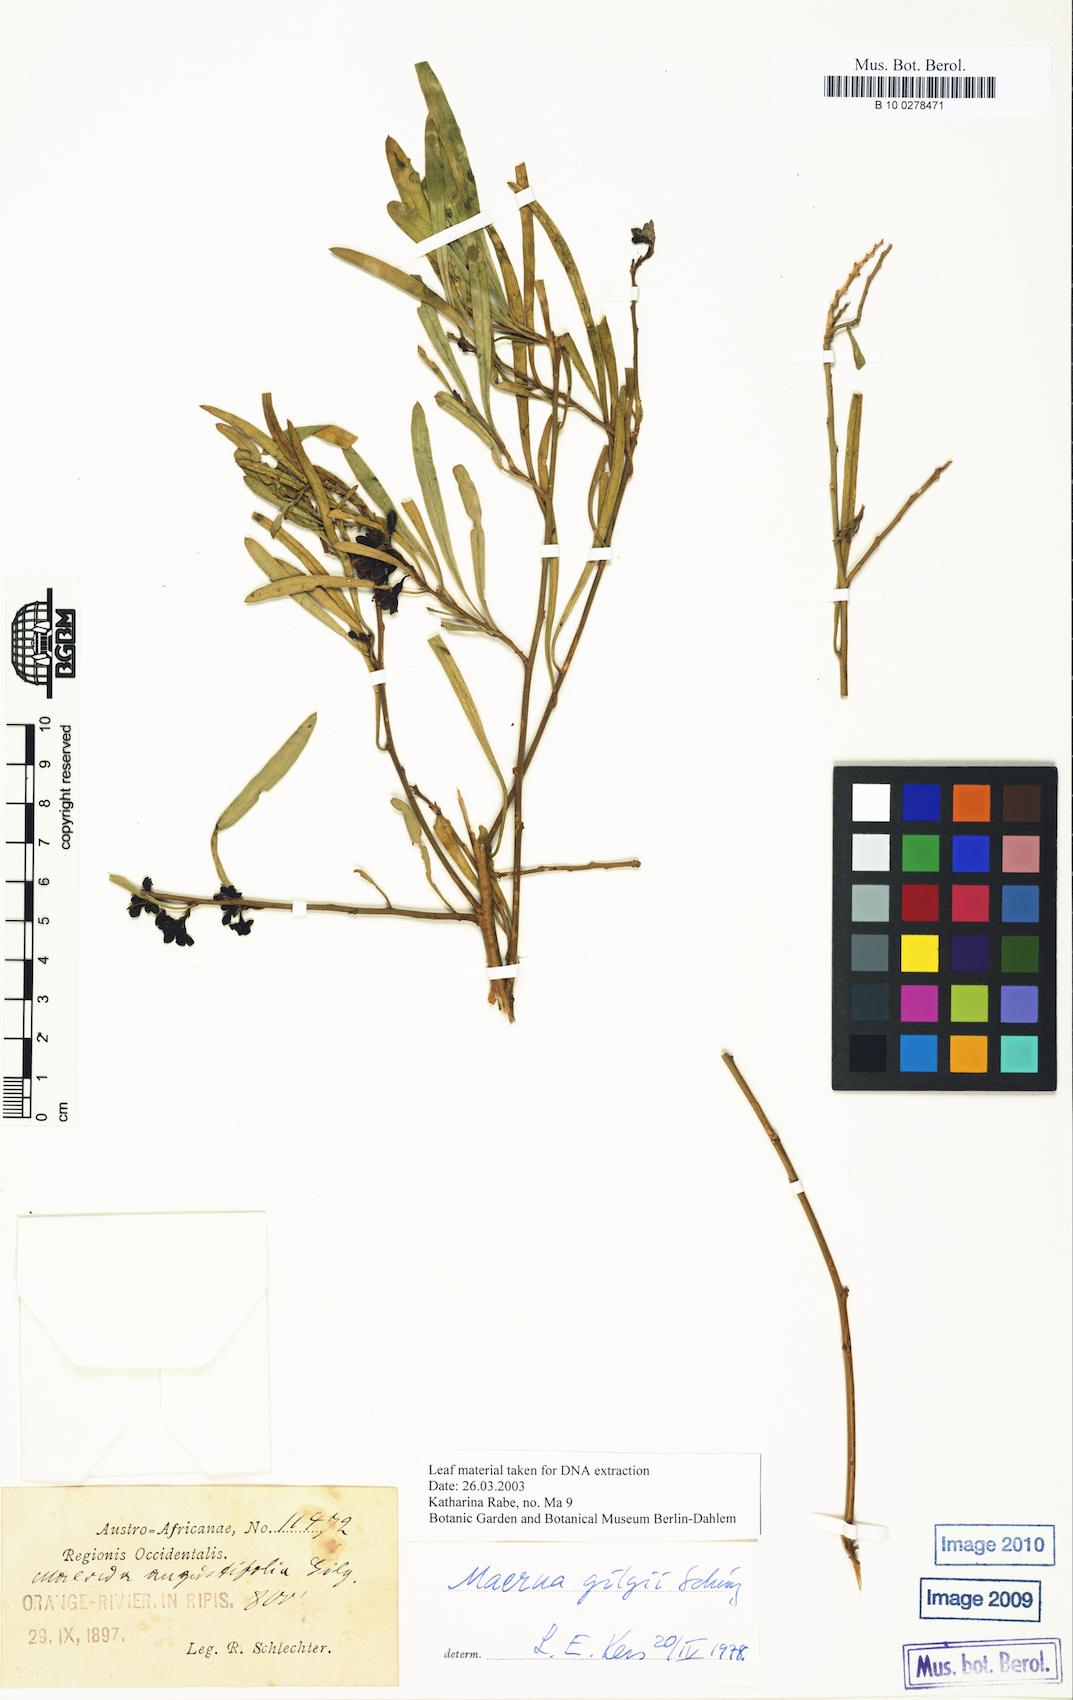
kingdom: Plantae
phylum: Tracheophyta
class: Magnoliopsida
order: Brassicales
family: Capparaceae
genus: Maerua
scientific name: Maerua gilgii
